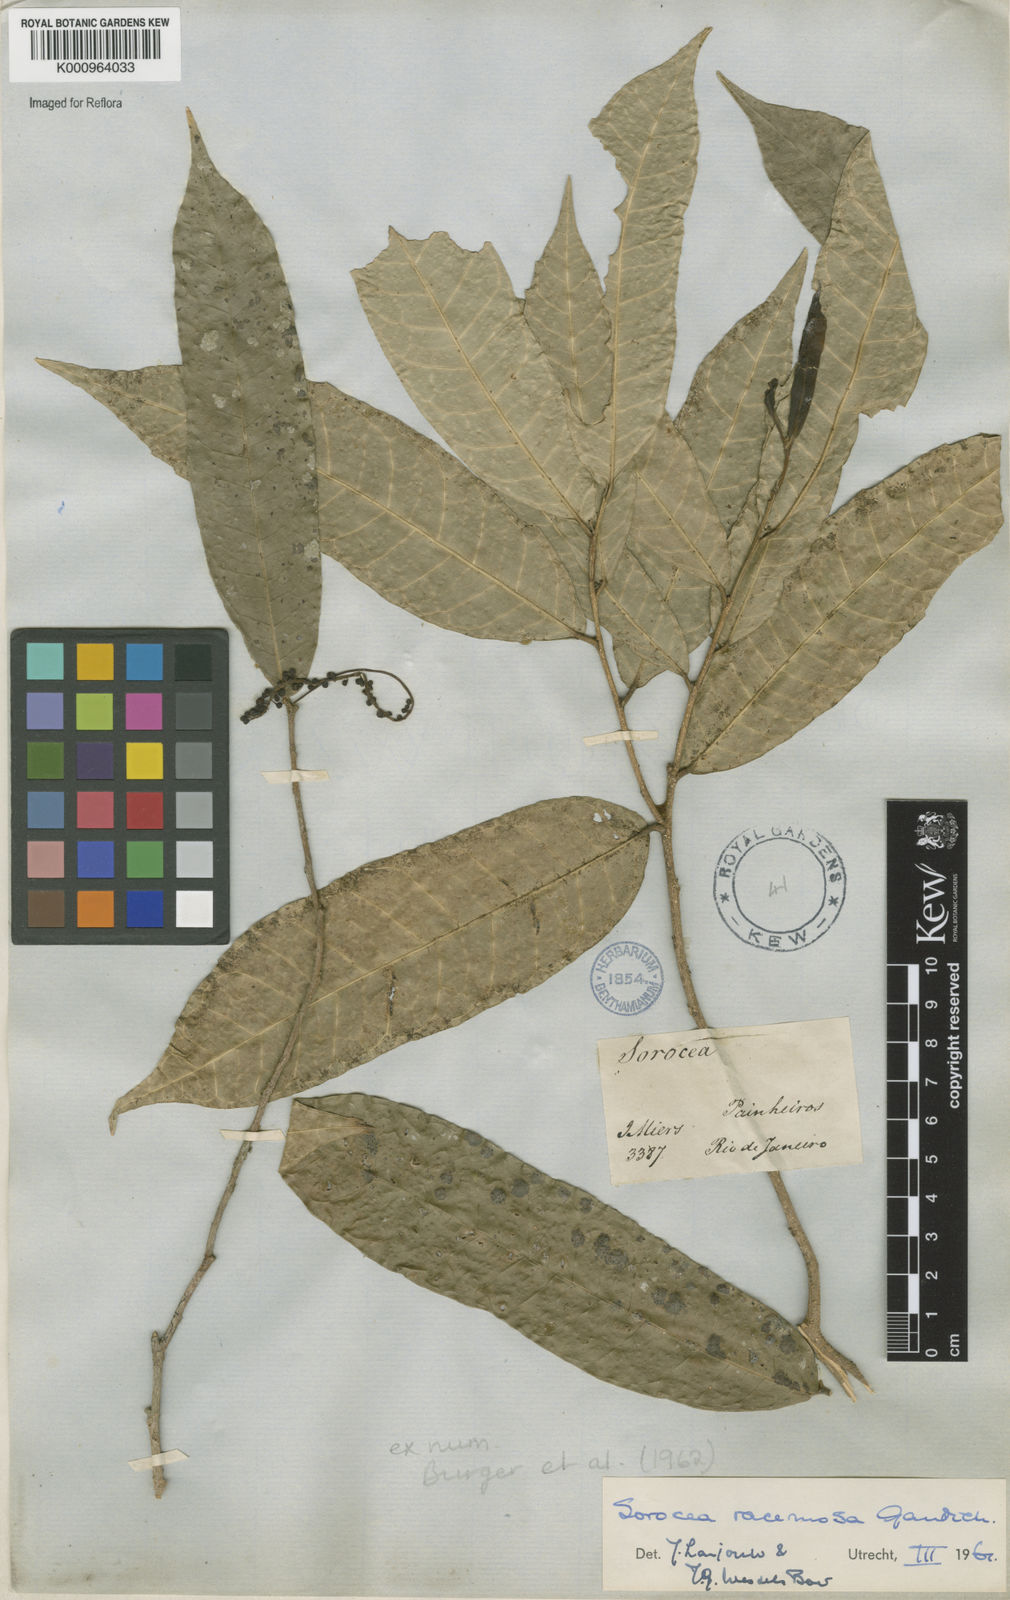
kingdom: Plantae
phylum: Tracheophyta
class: Magnoliopsida
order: Rosales
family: Moraceae
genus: Sorocea
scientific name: Sorocea hilarii
